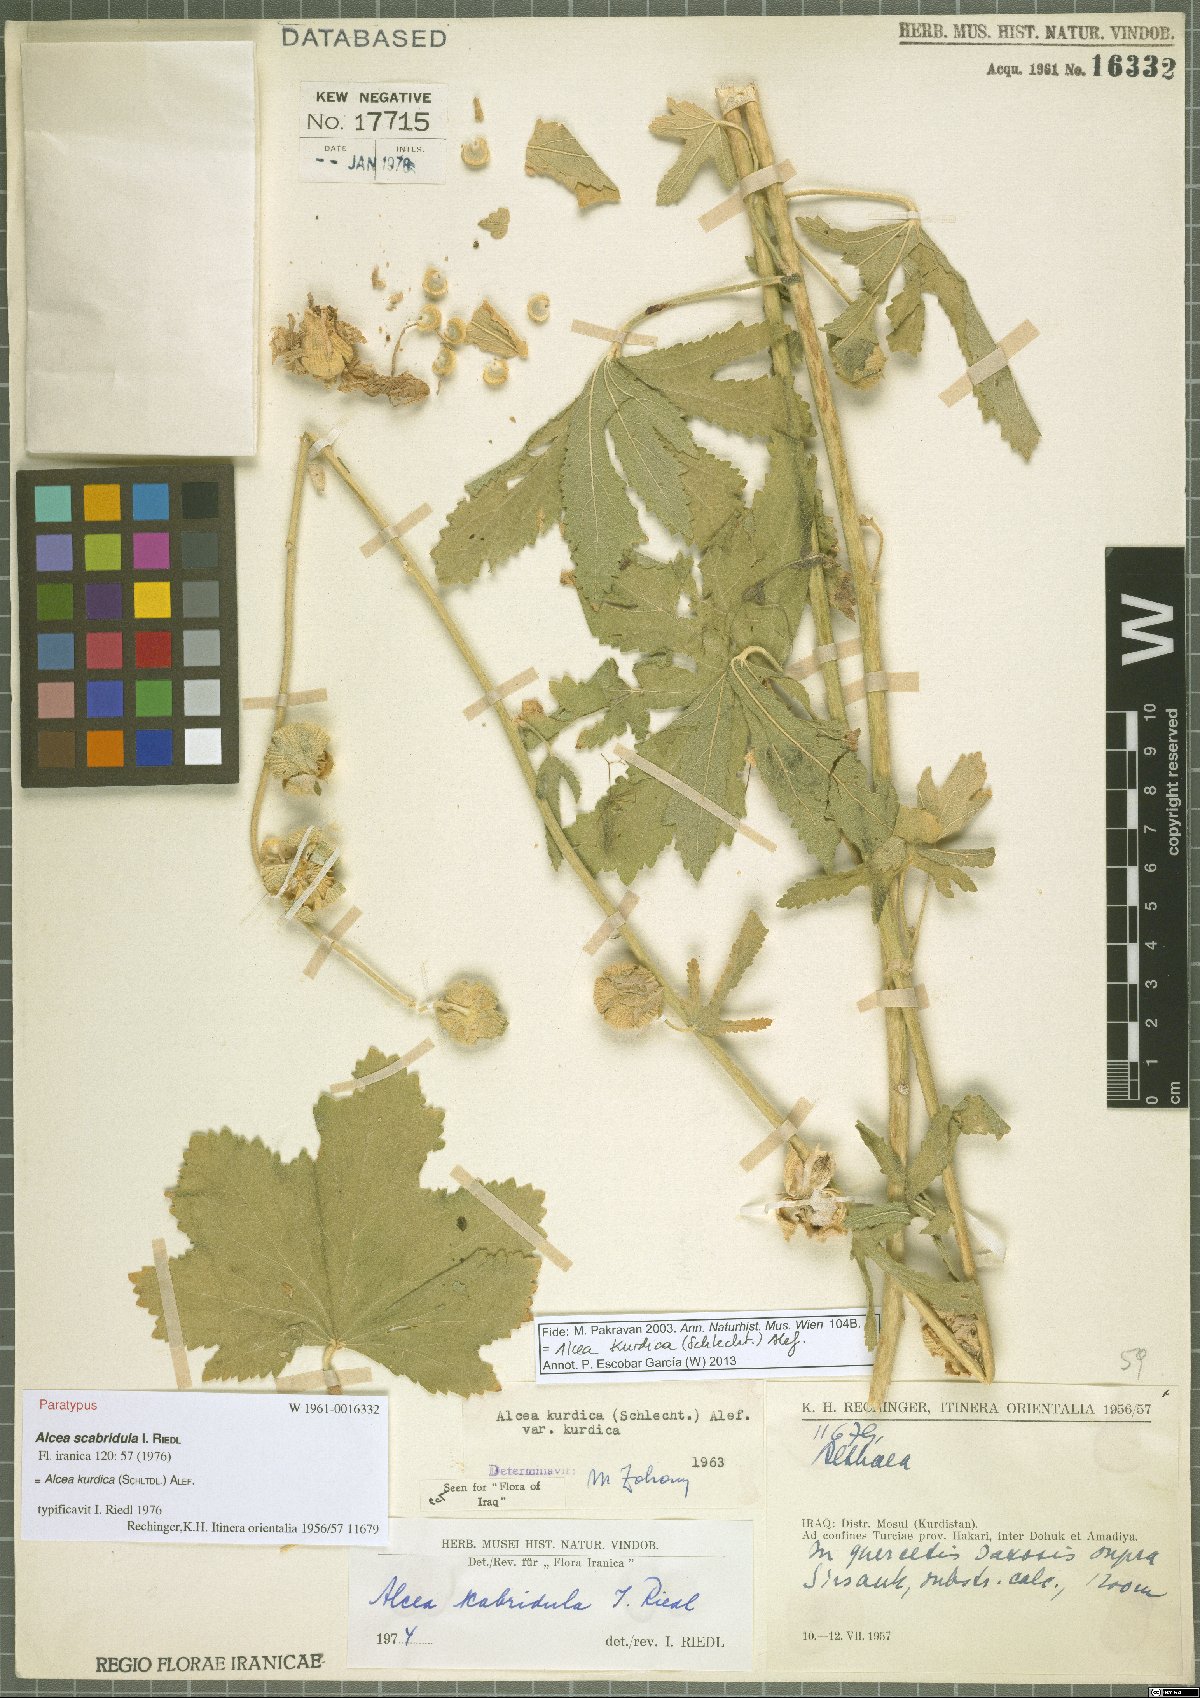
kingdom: Plantae
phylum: Tracheophyta
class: Magnoliopsida
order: Malvales
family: Malvaceae
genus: Alcea
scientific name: Alcea kurdica
